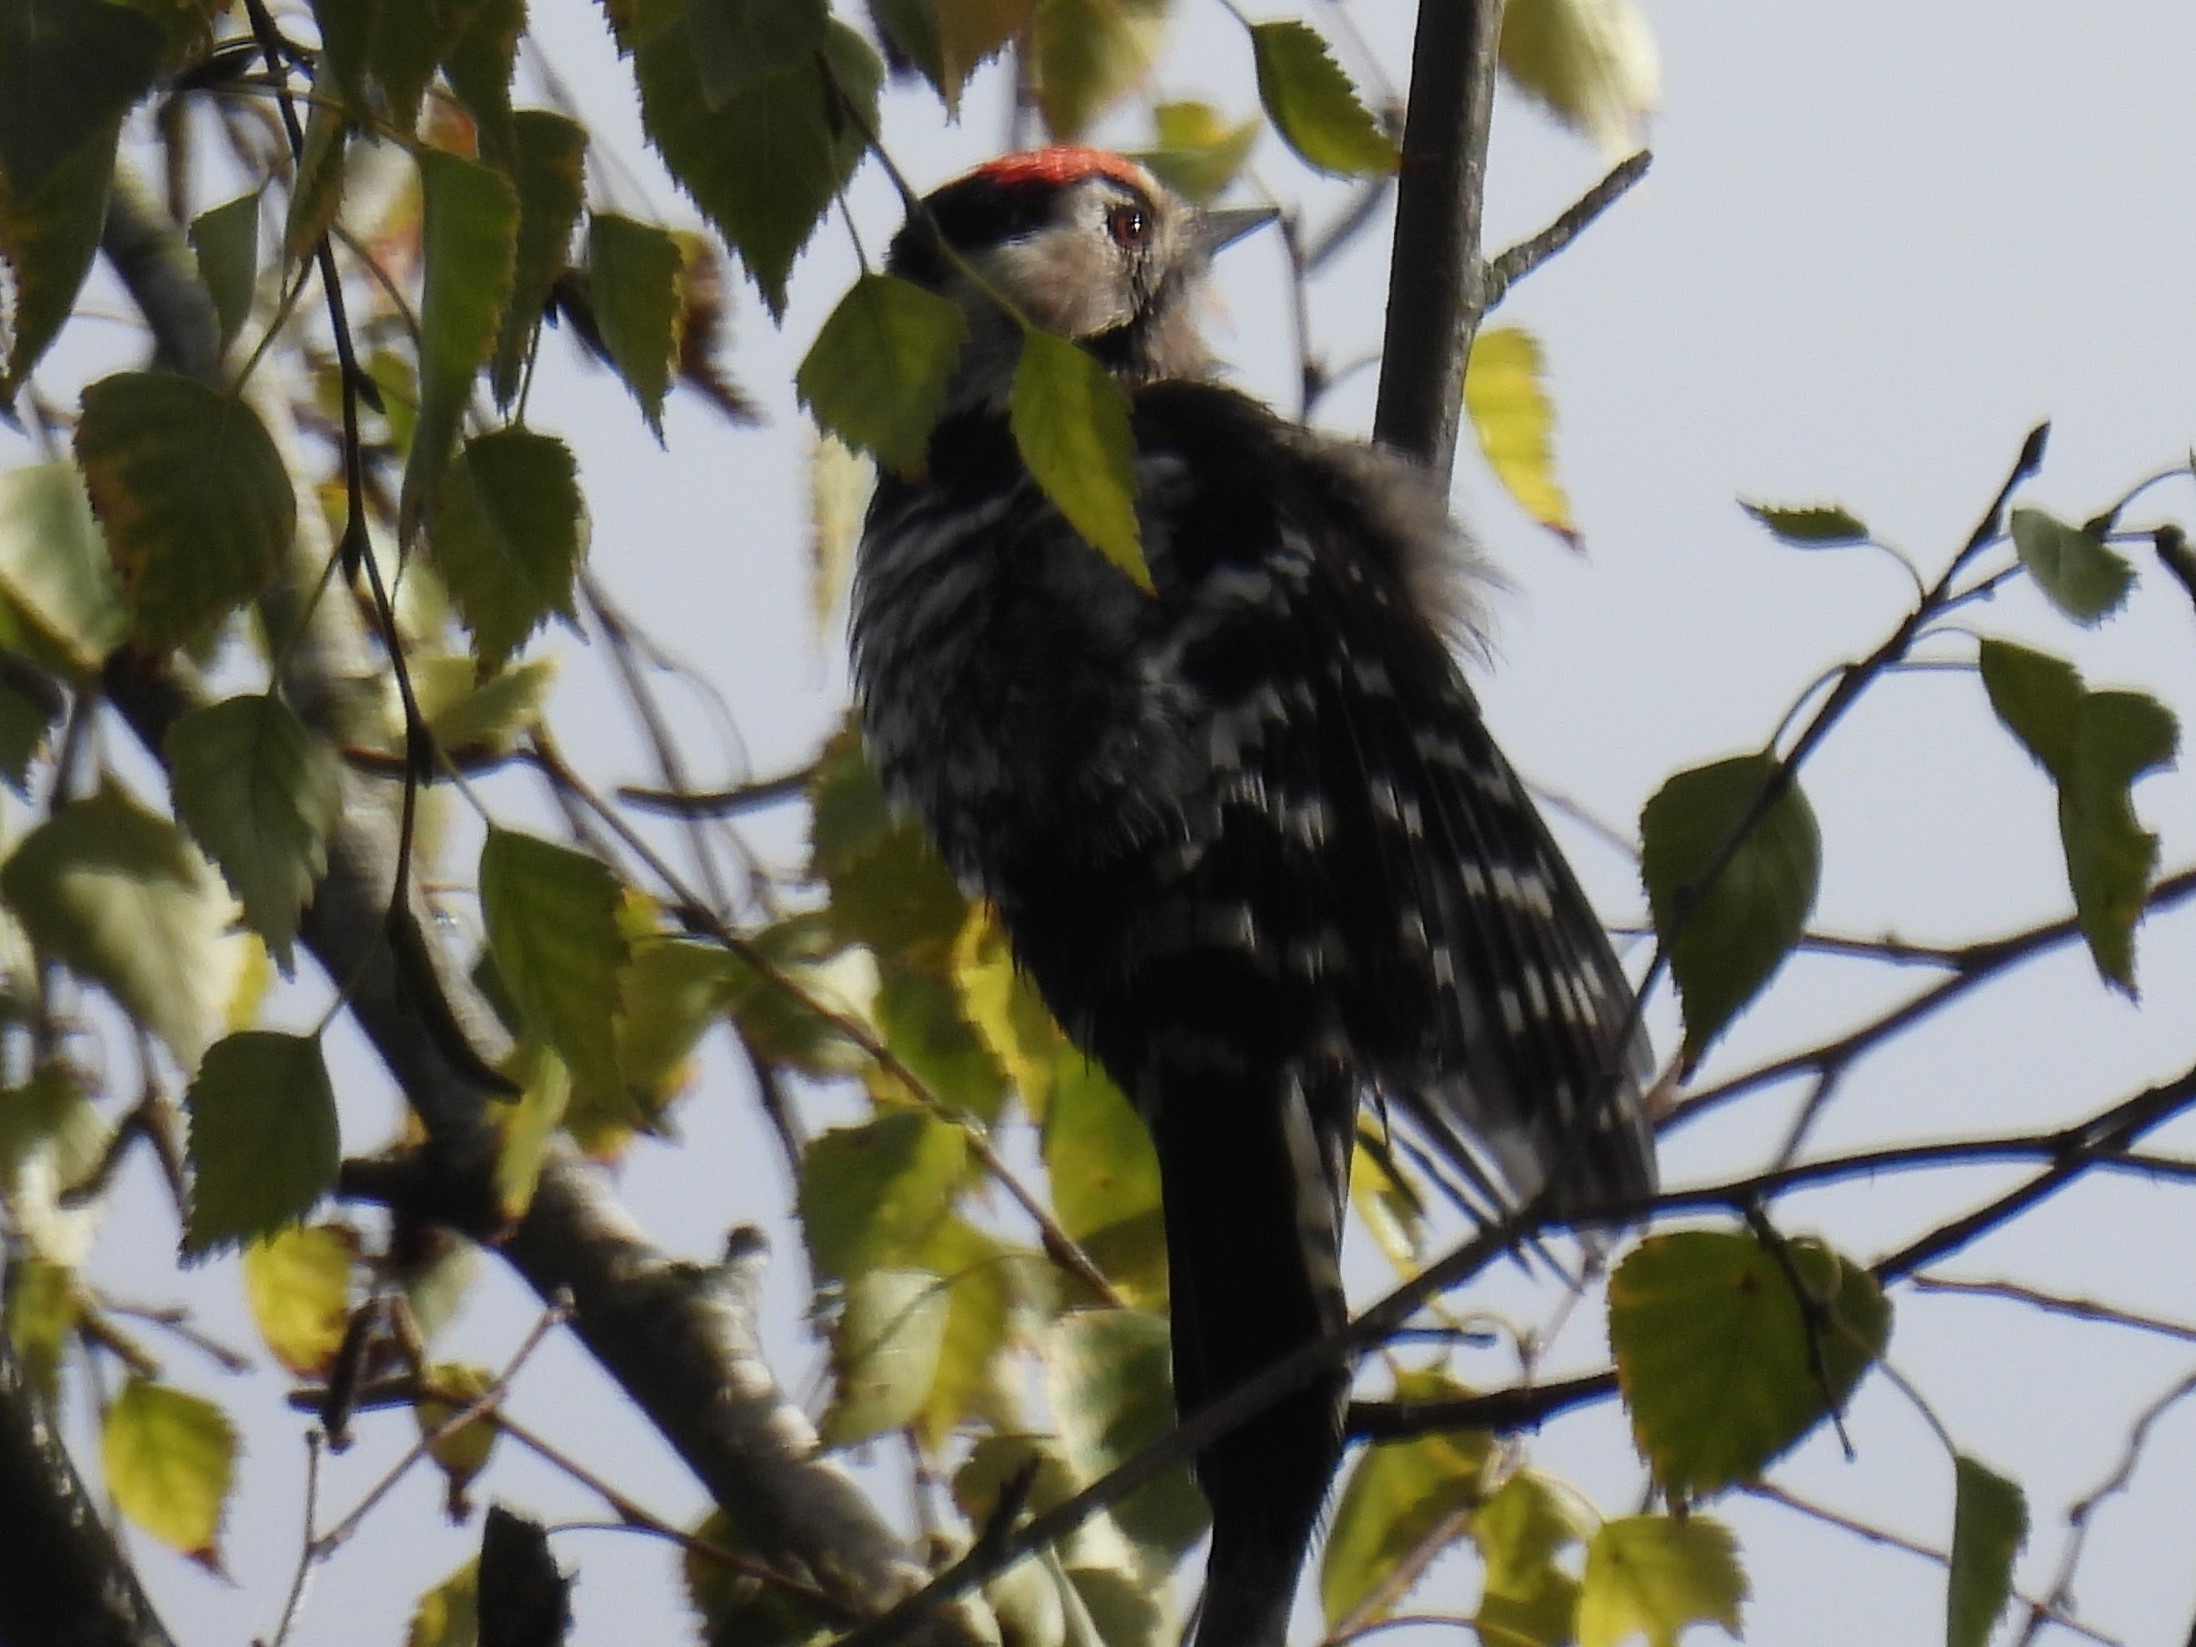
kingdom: Animalia
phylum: Chordata
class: Aves
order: Piciformes
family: Picidae
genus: Dryobates
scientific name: Dryobates minor
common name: Lille flagspætte
